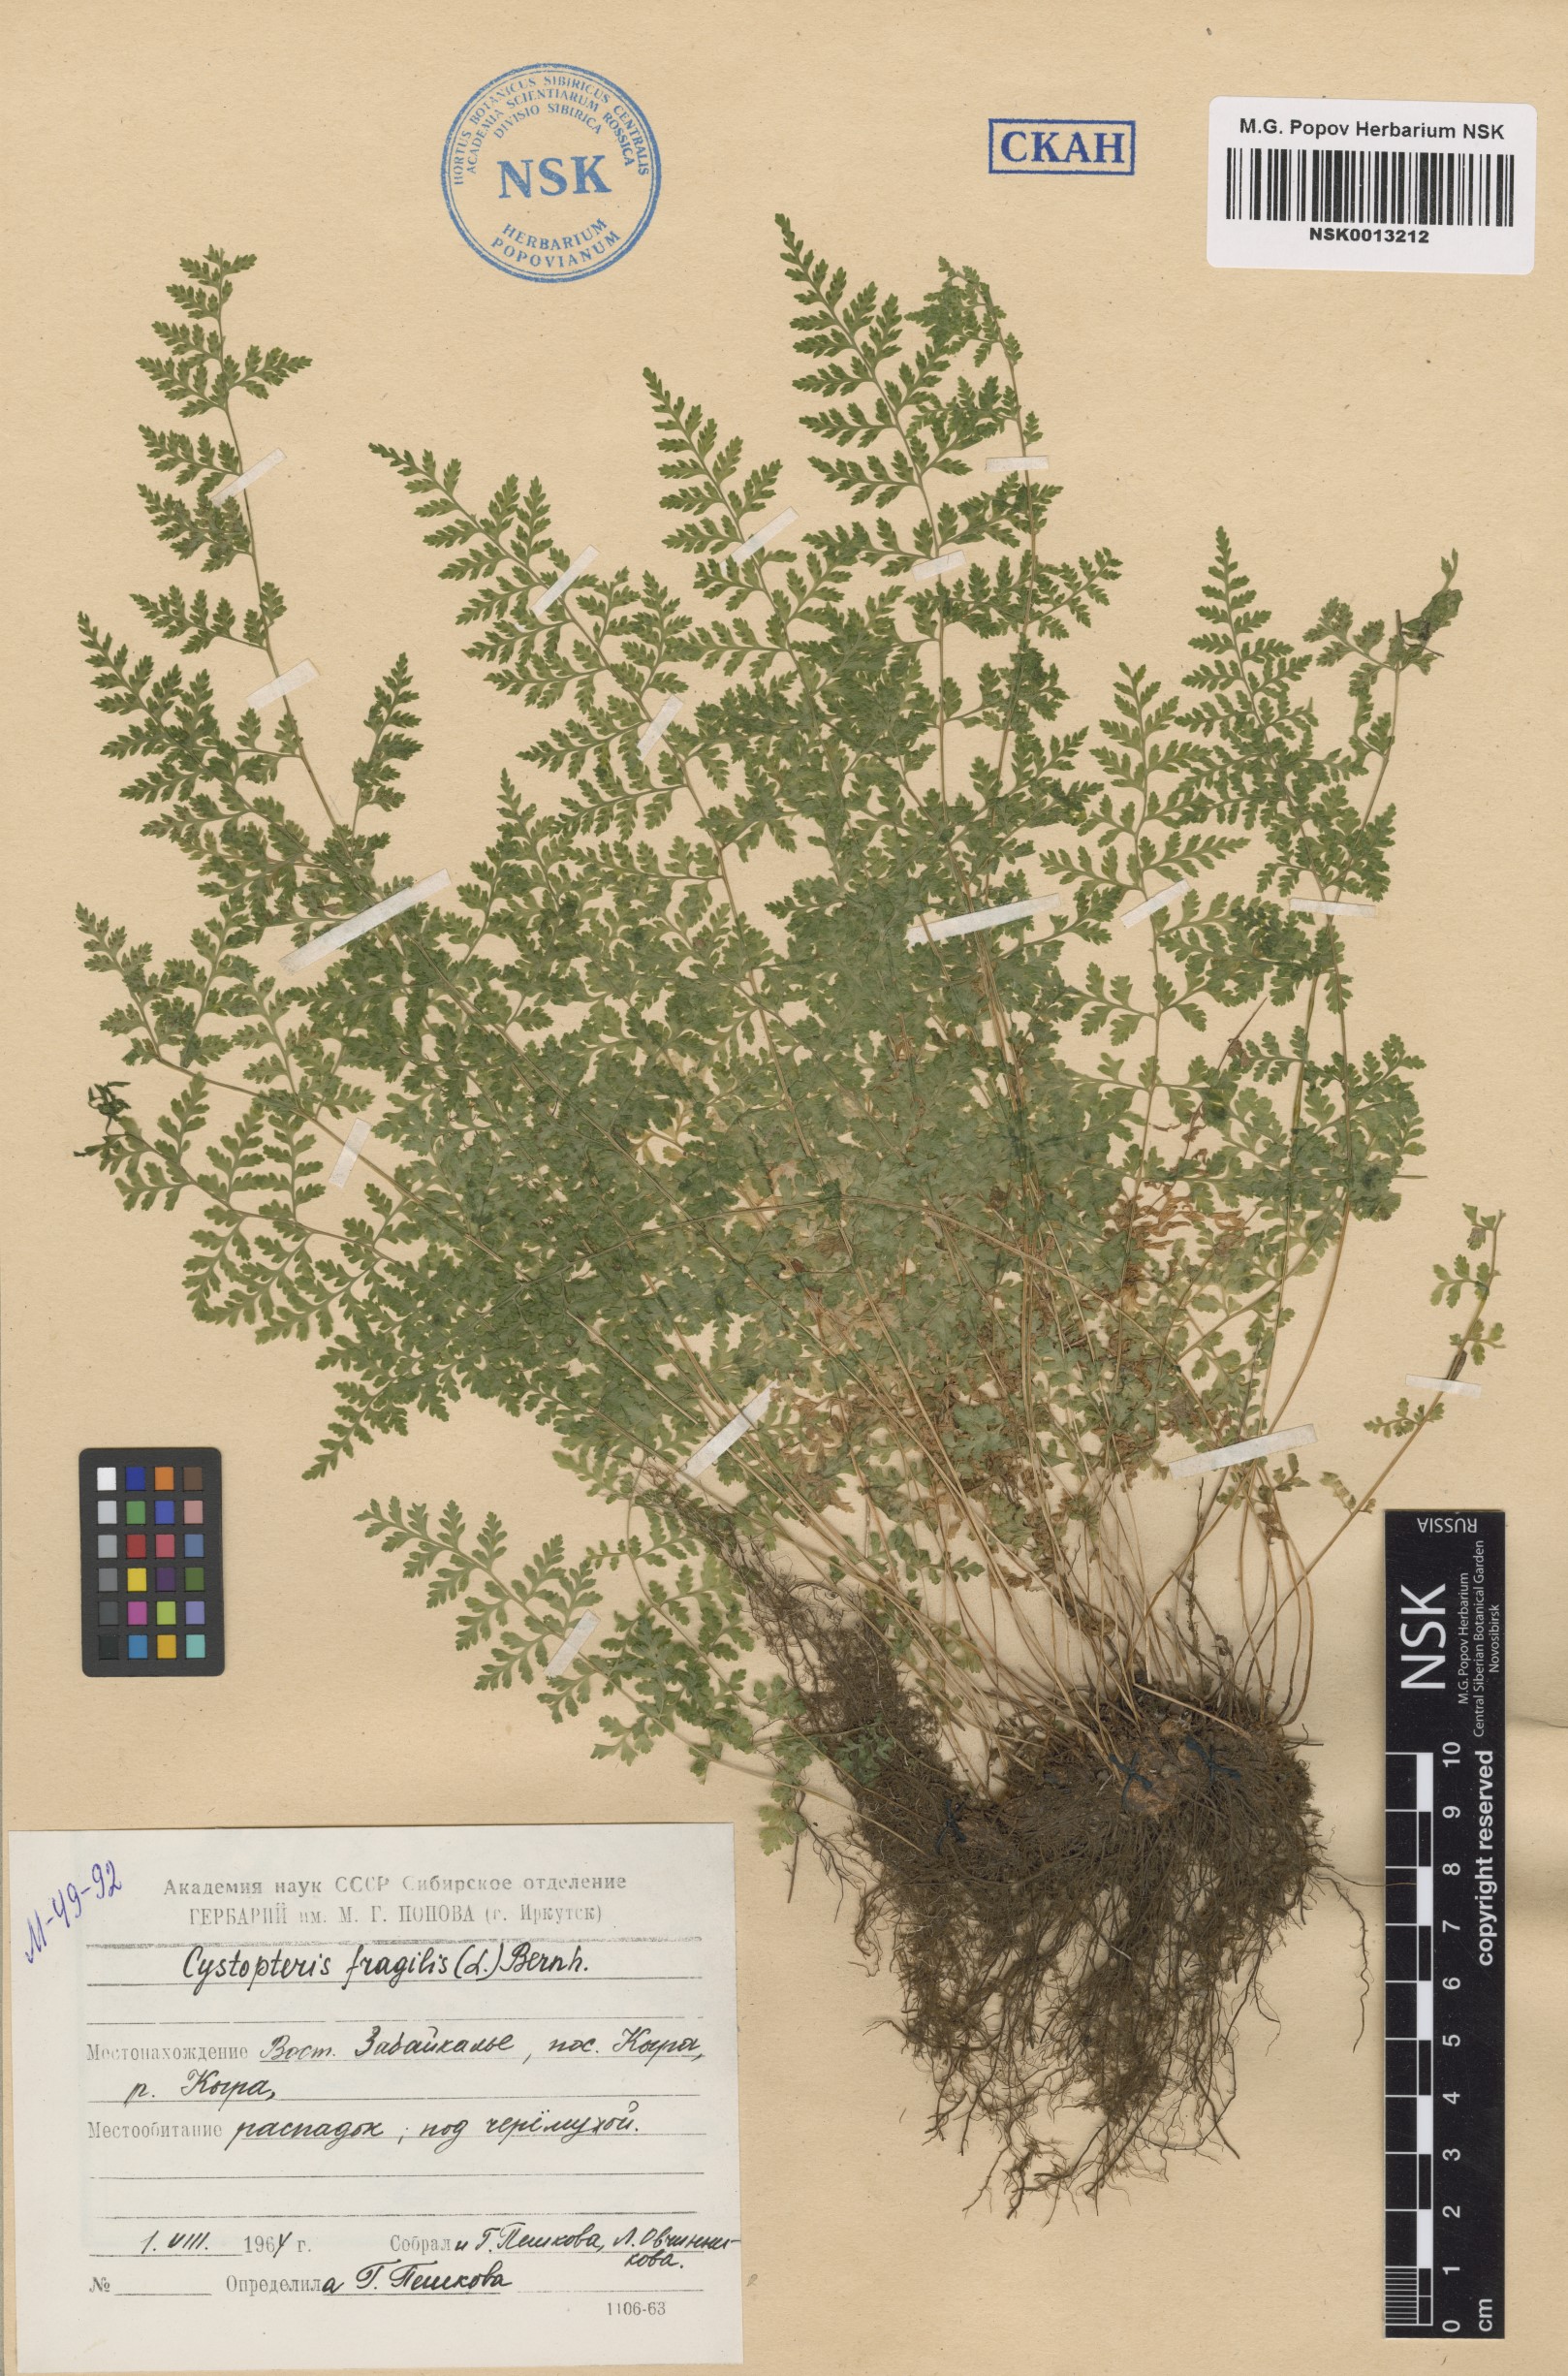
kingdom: Plantae
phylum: Tracheophyta
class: Polypodiopsida
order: Polypodiales
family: Cystopteridaceae
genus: Cystopteris
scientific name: Cystopteris fragilis
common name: Brittle bladder fern
